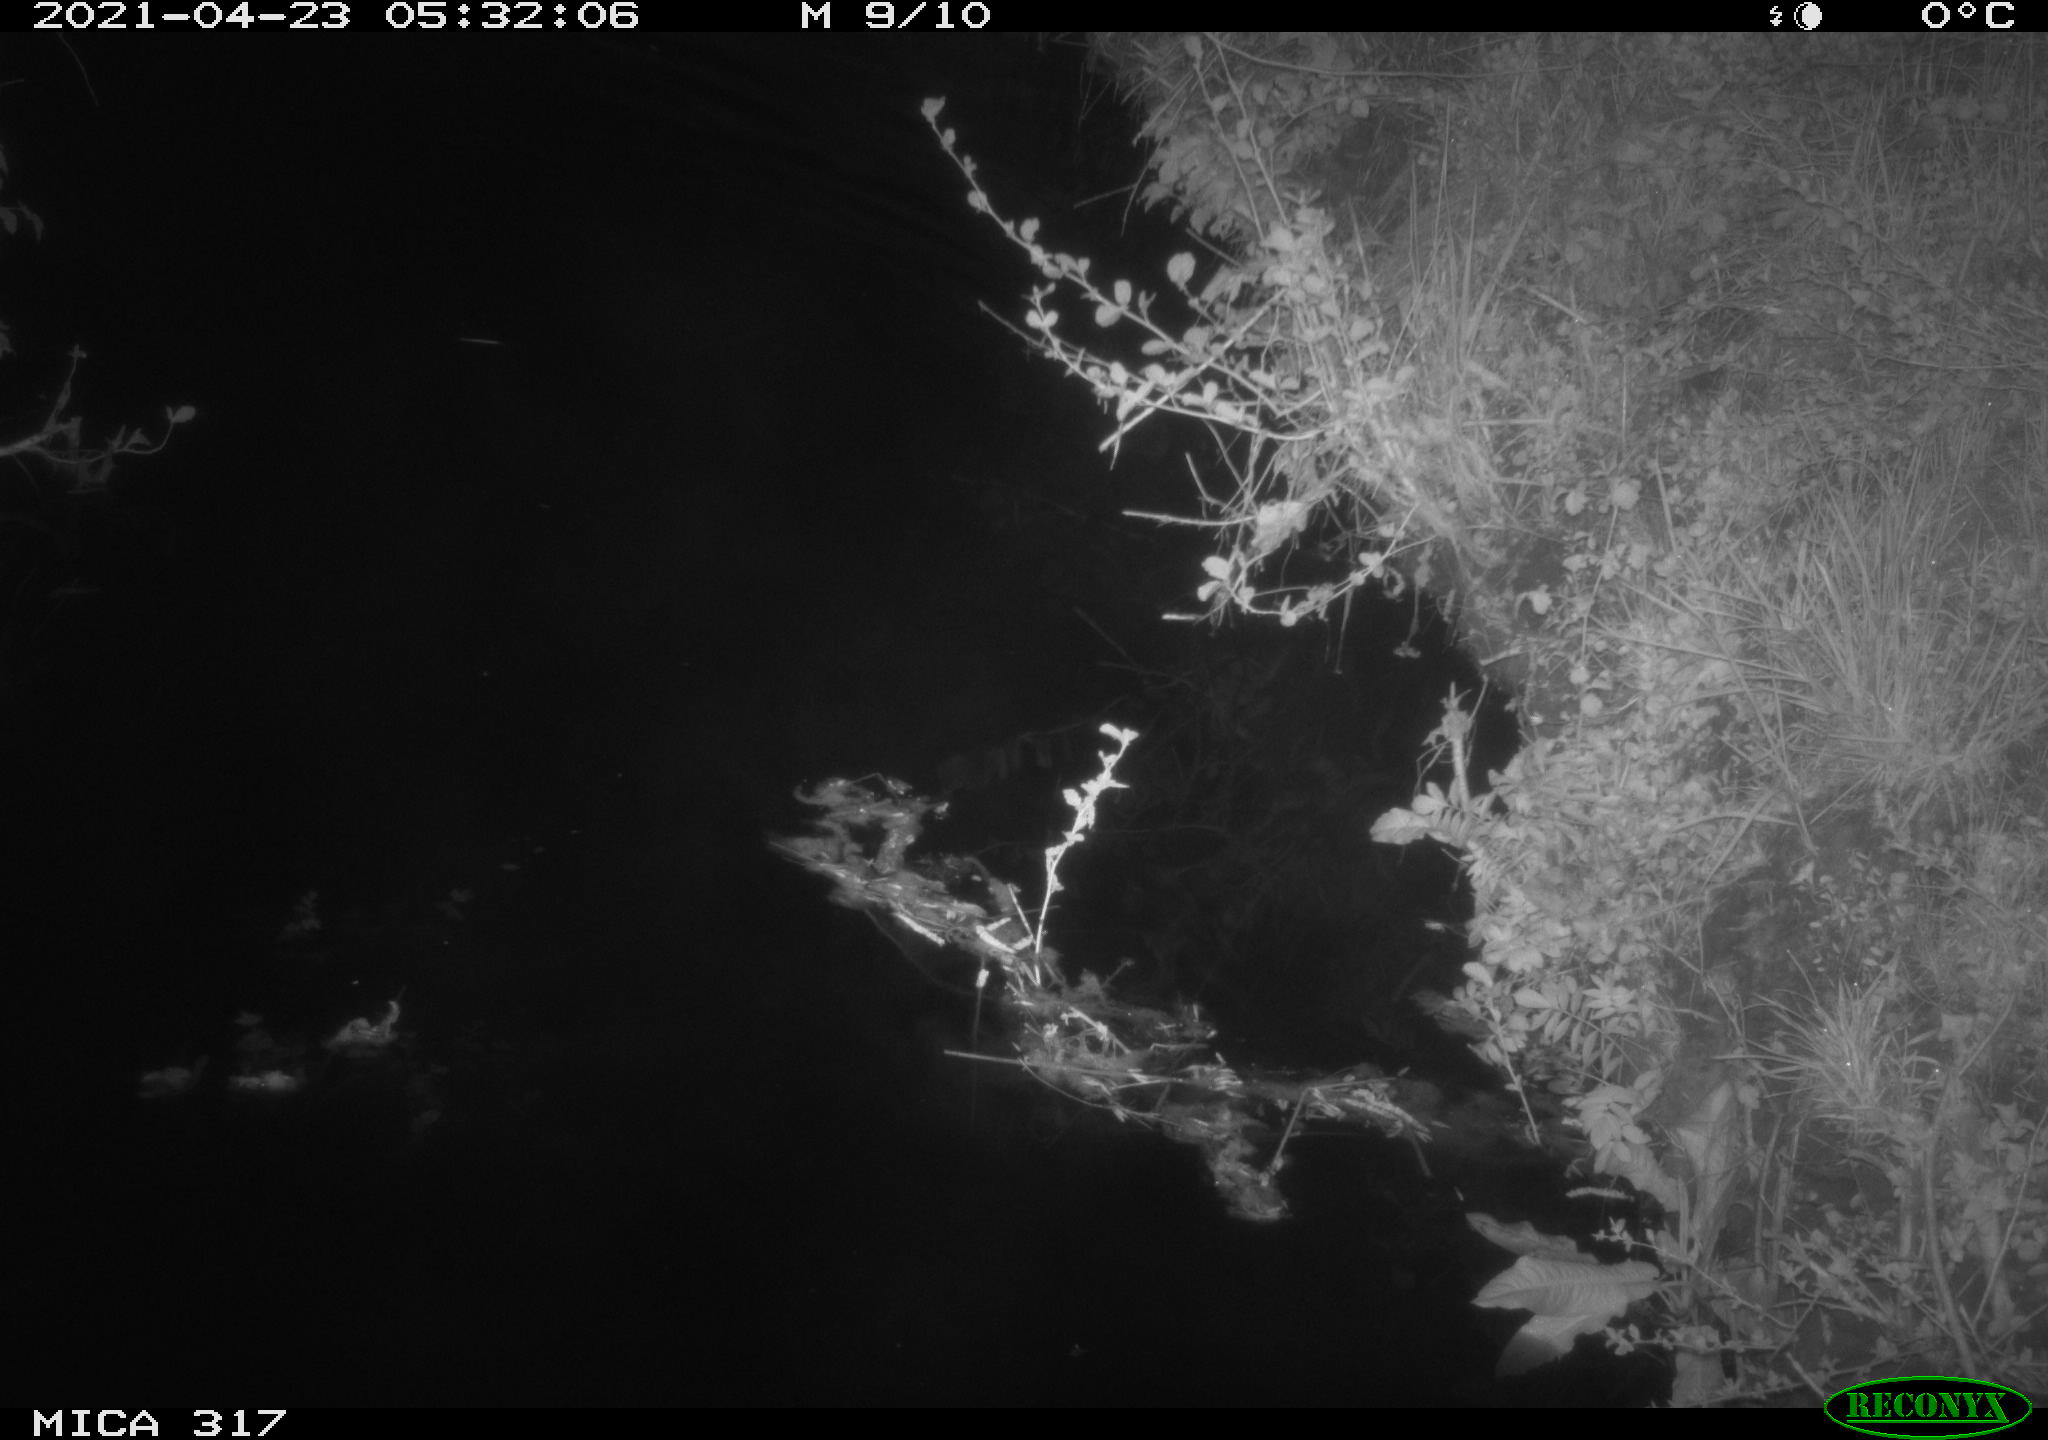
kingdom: Animalia
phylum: Chordata
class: Aves
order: Anseriformes
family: Anatidae
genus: Anas
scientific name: Anas
